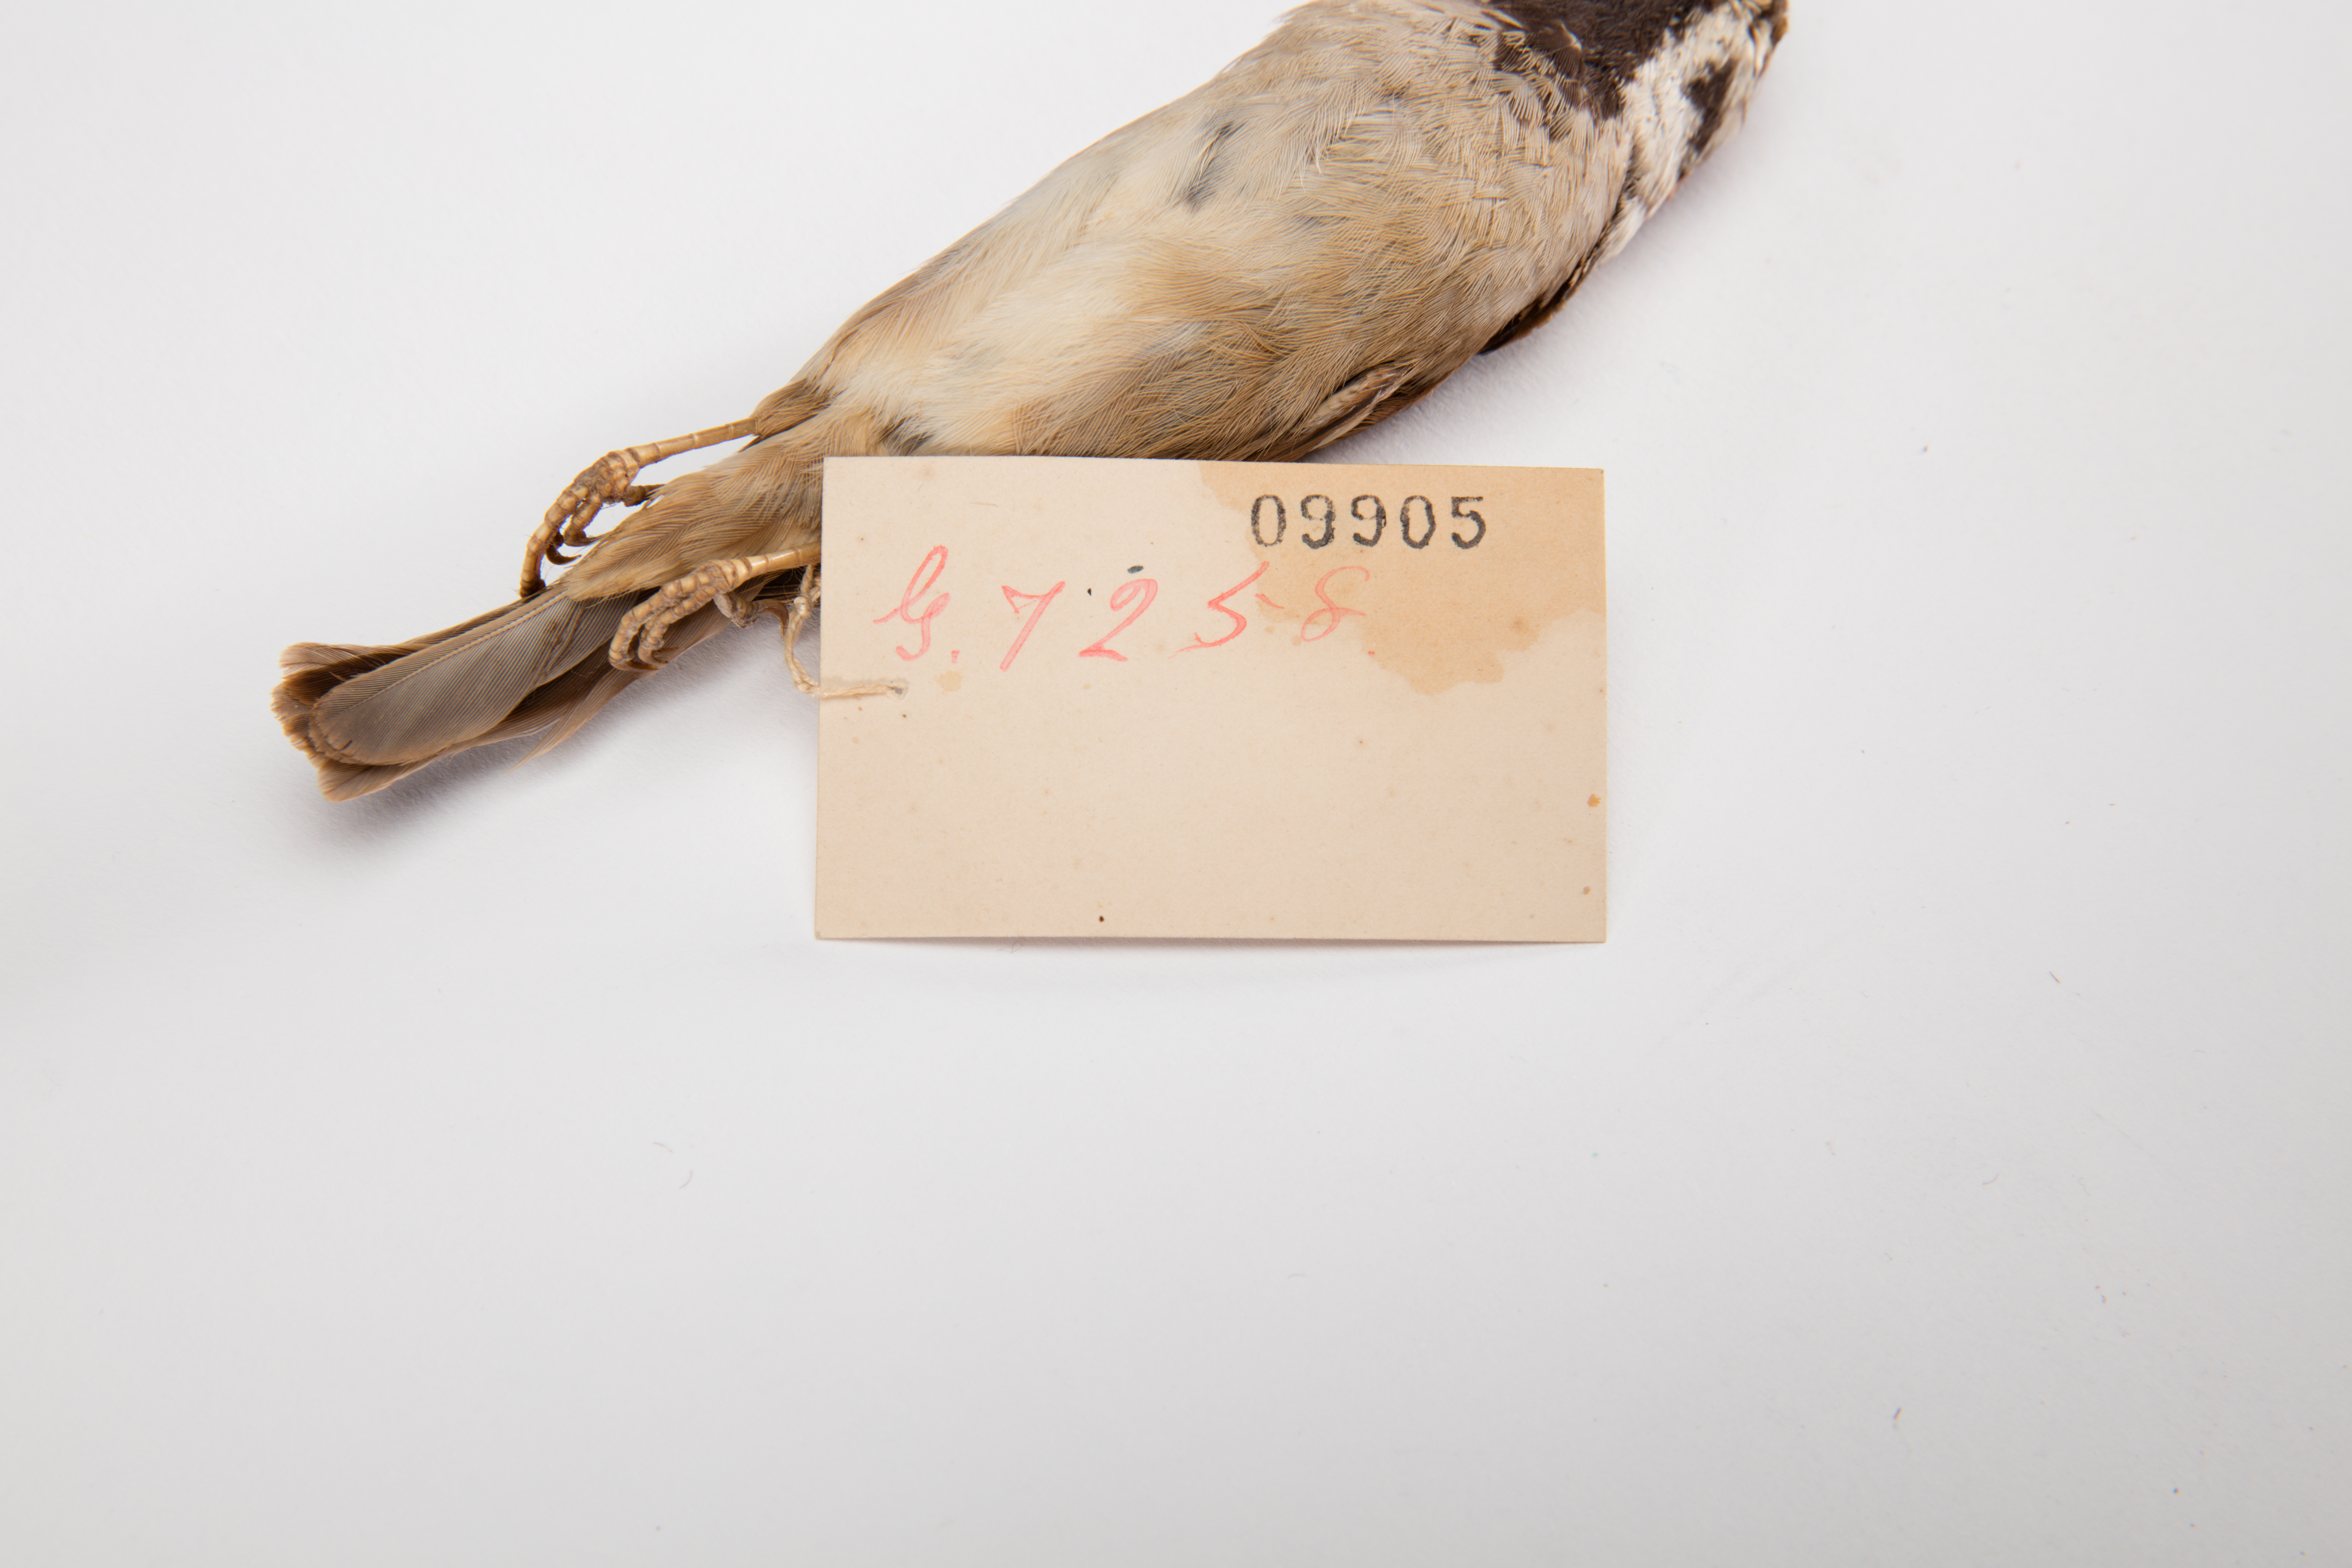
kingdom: Animalia
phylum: Chordata
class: Aves
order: Passeriformes
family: Passeridae
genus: Passer
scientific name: Passer montanus
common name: Eurasian tree sparrow
